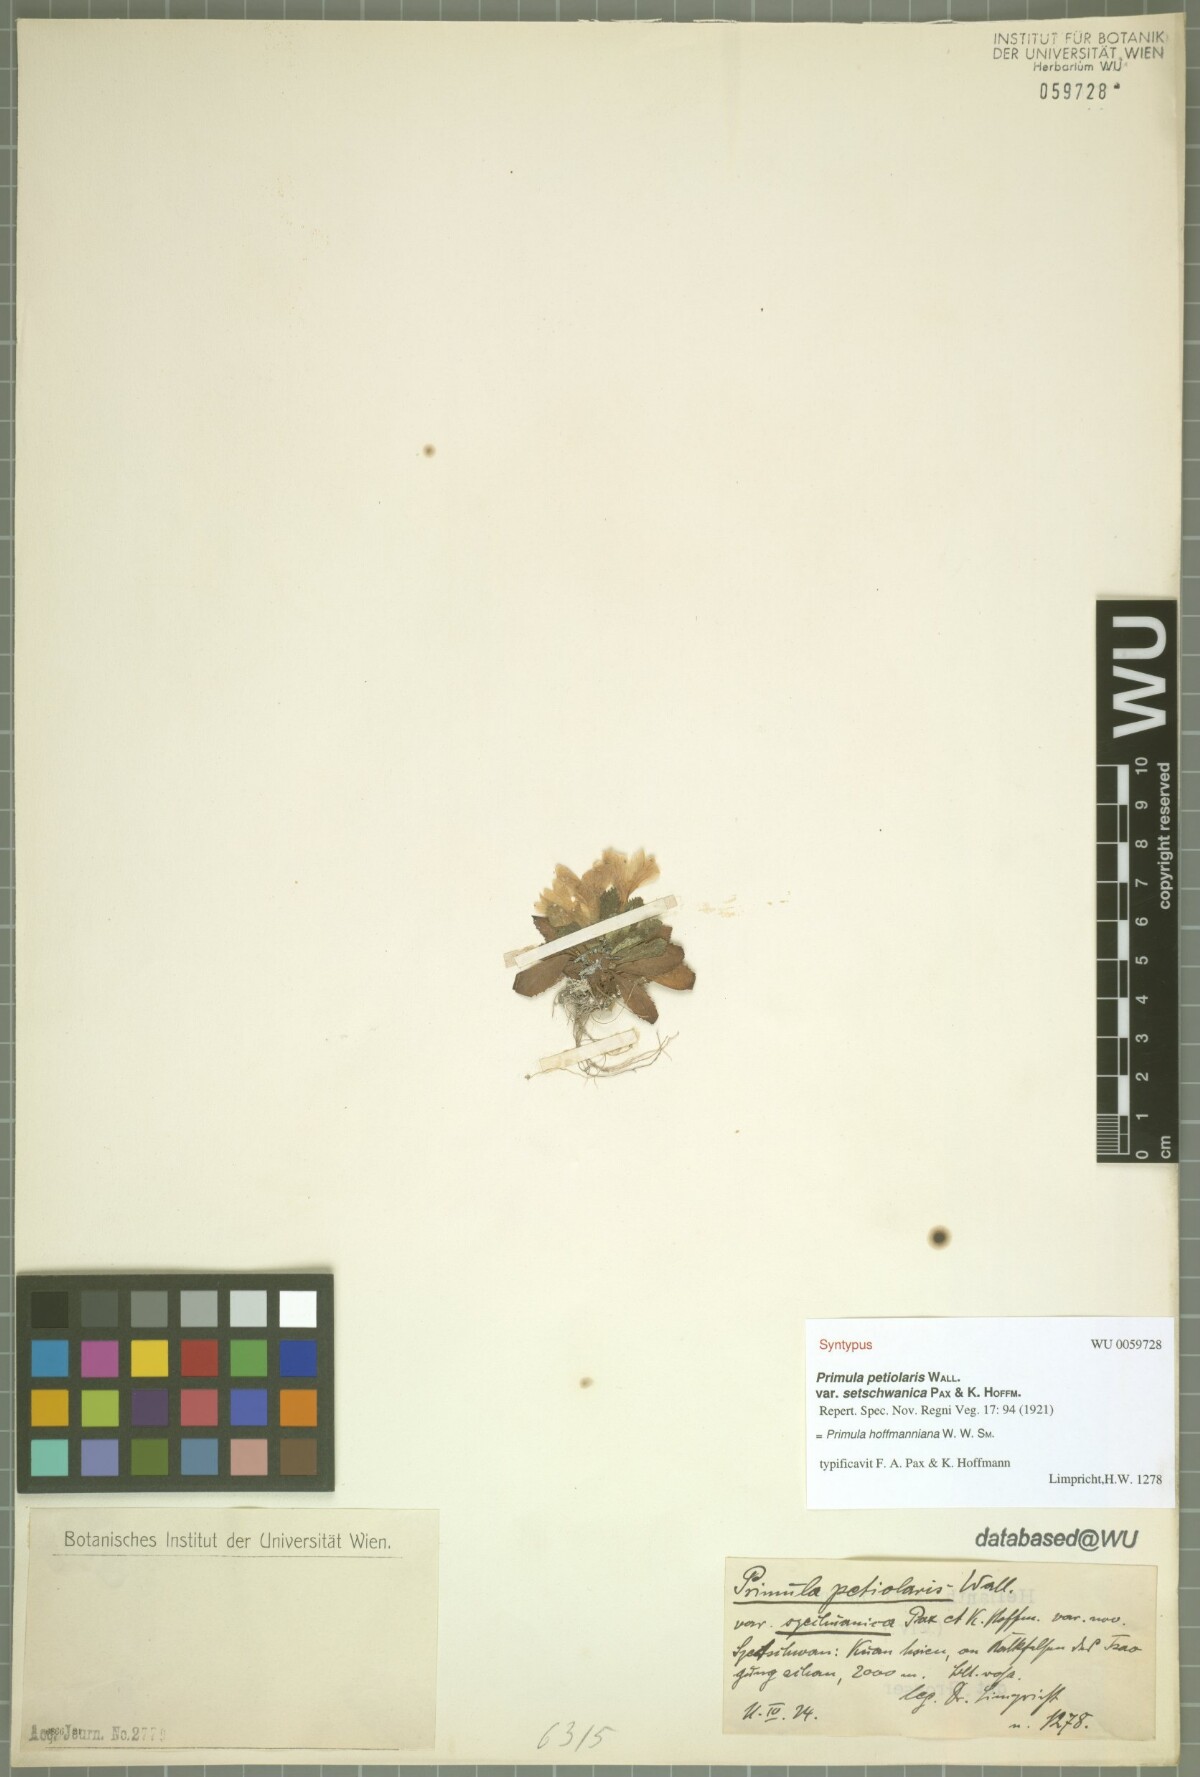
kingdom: Plantae
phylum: Tracheophyta
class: Magnoliopsida
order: Ericales
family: Primulaceae
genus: Primula
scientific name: Primula hoffmanniana
